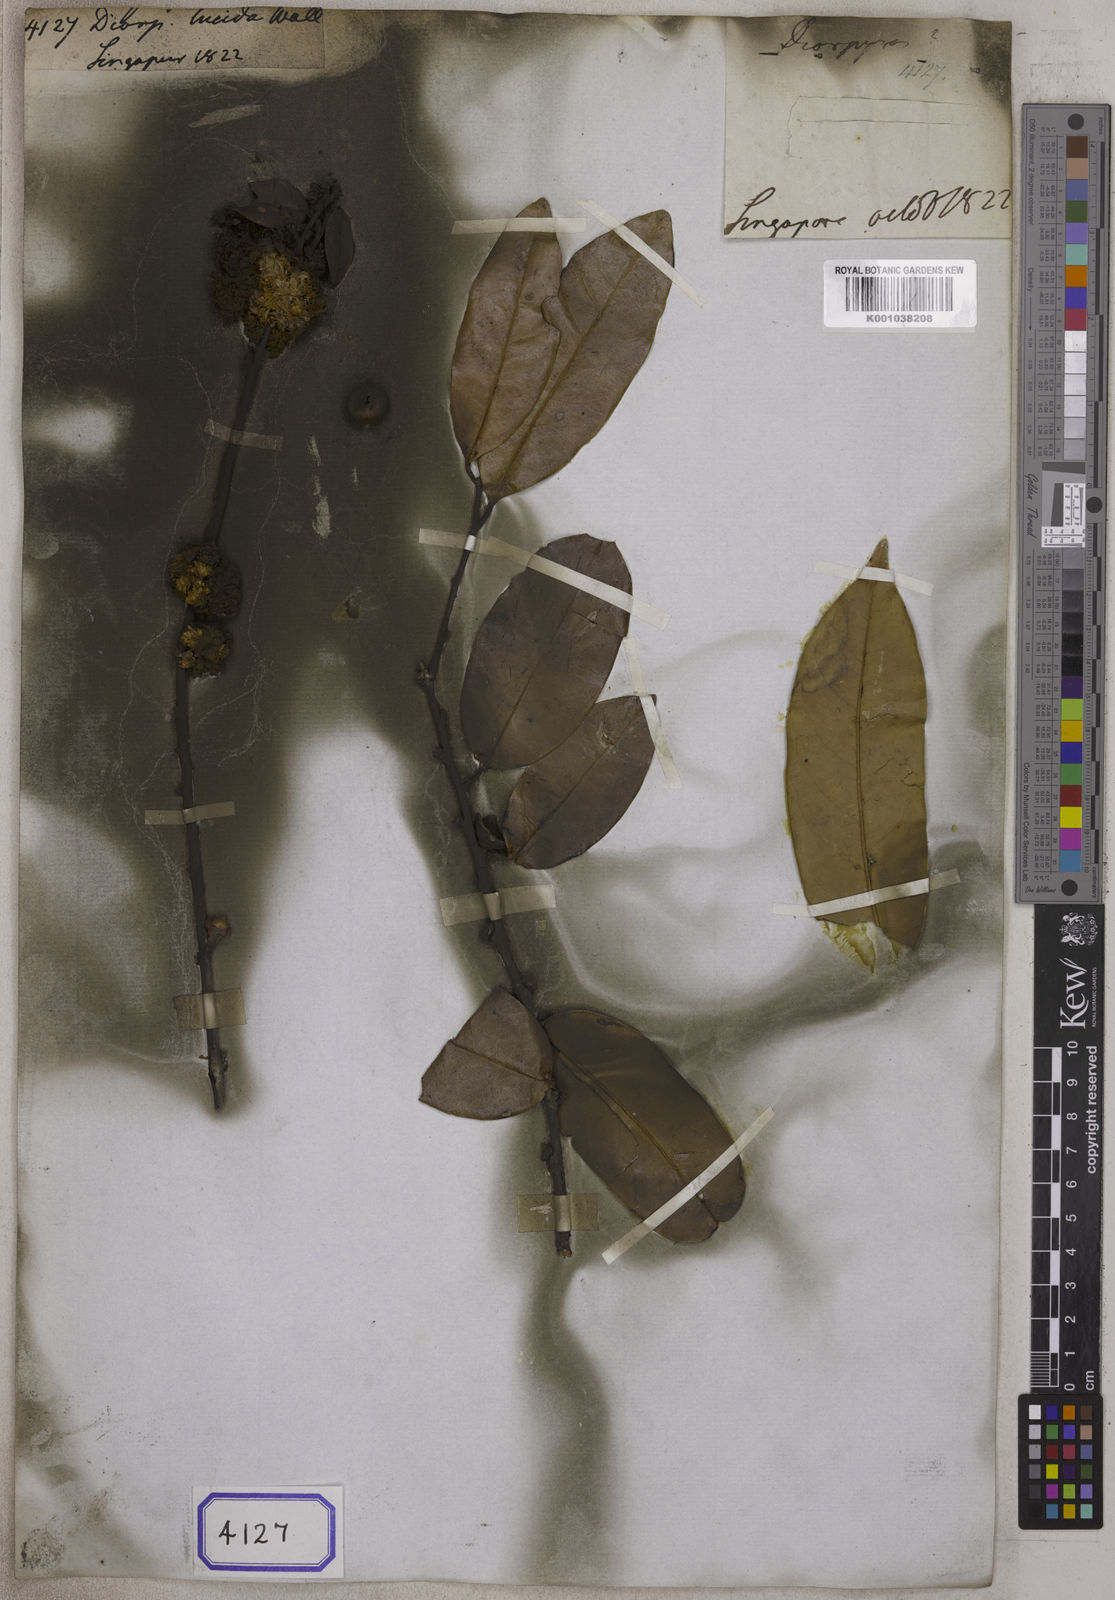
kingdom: Plantae
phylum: Tracheophyta
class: Magnoliopsida
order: Ericales
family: Ebenaceae
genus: Diospyros
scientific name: Diospyros
